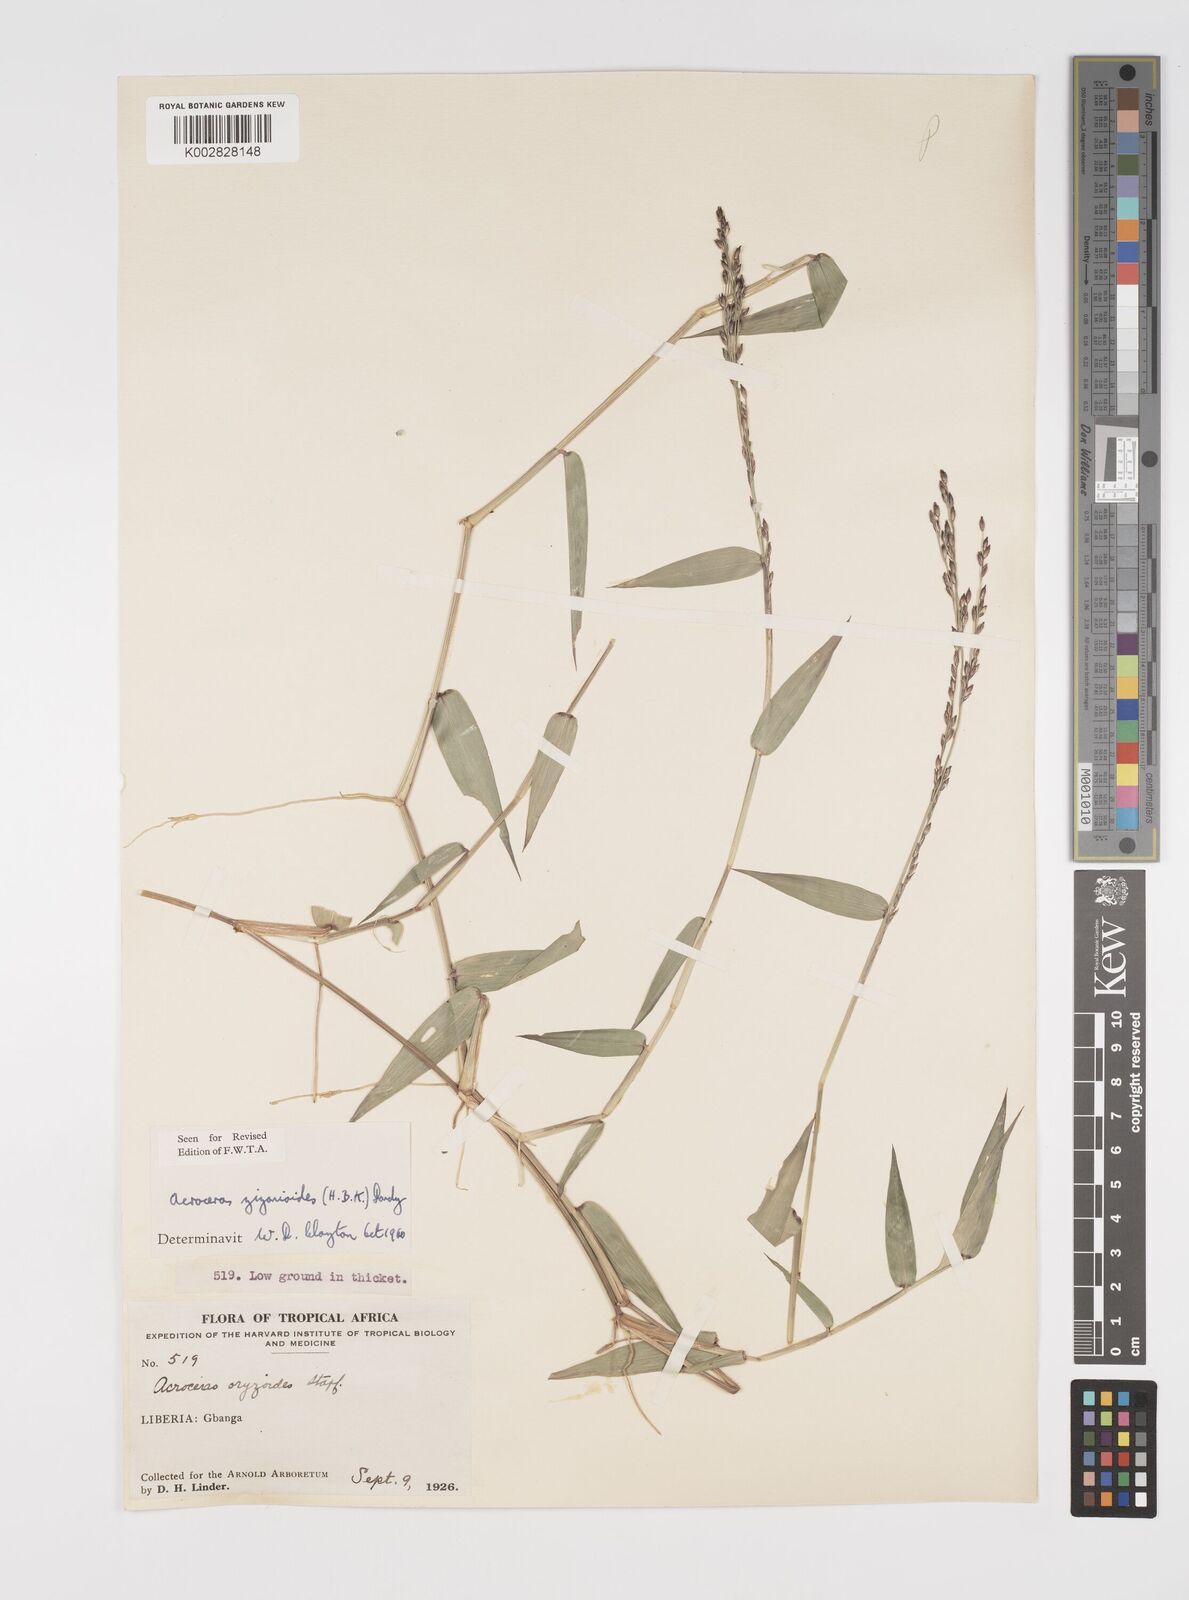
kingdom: Plantae
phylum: Tracheophyta
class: Liliopsida
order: Poales
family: Poaceae
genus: Acroceras
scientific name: Acroceras zizanioides
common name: Oat grass
